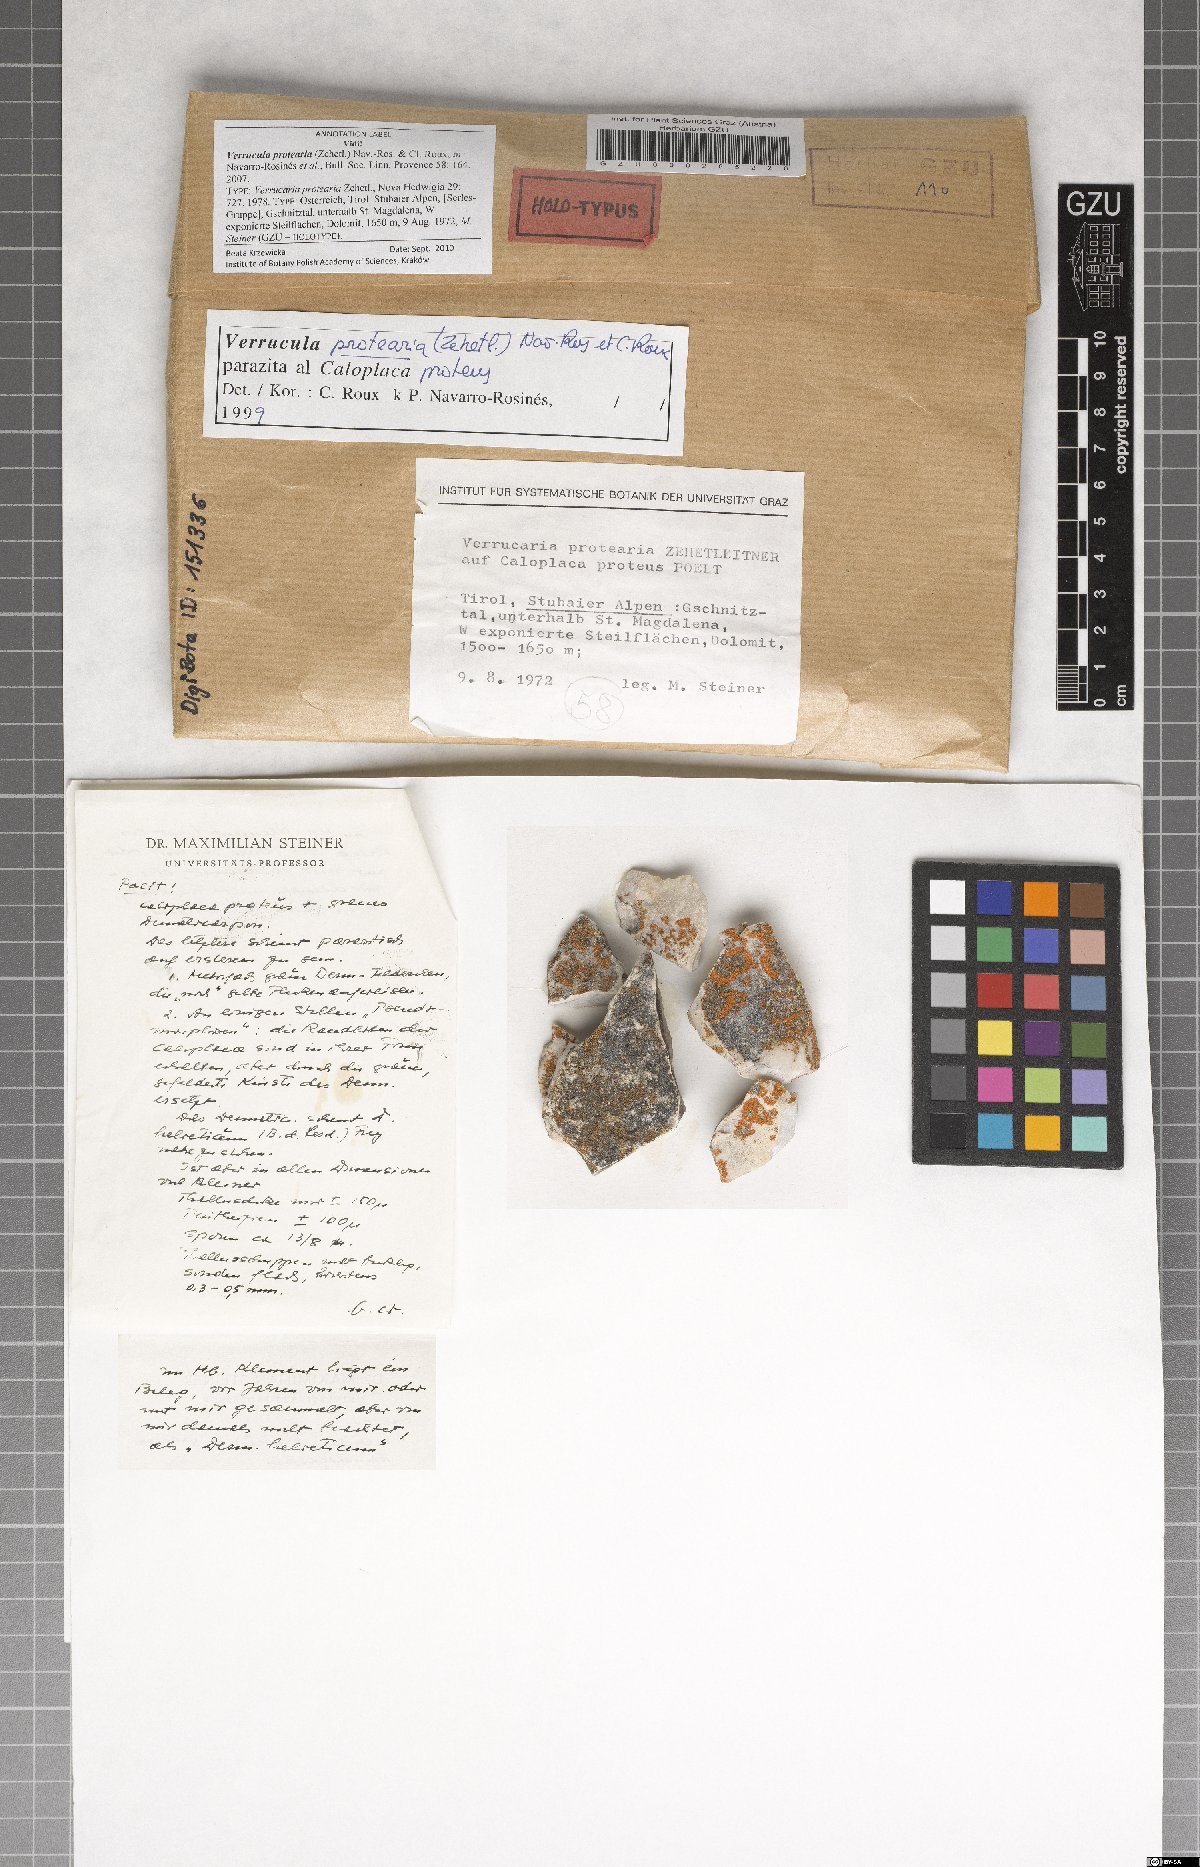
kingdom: Fungi
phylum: Ascomycota
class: Eurotiomycetes
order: Verrucariales
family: Verrucariaceae
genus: Verrucula
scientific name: Verrucula protearia
